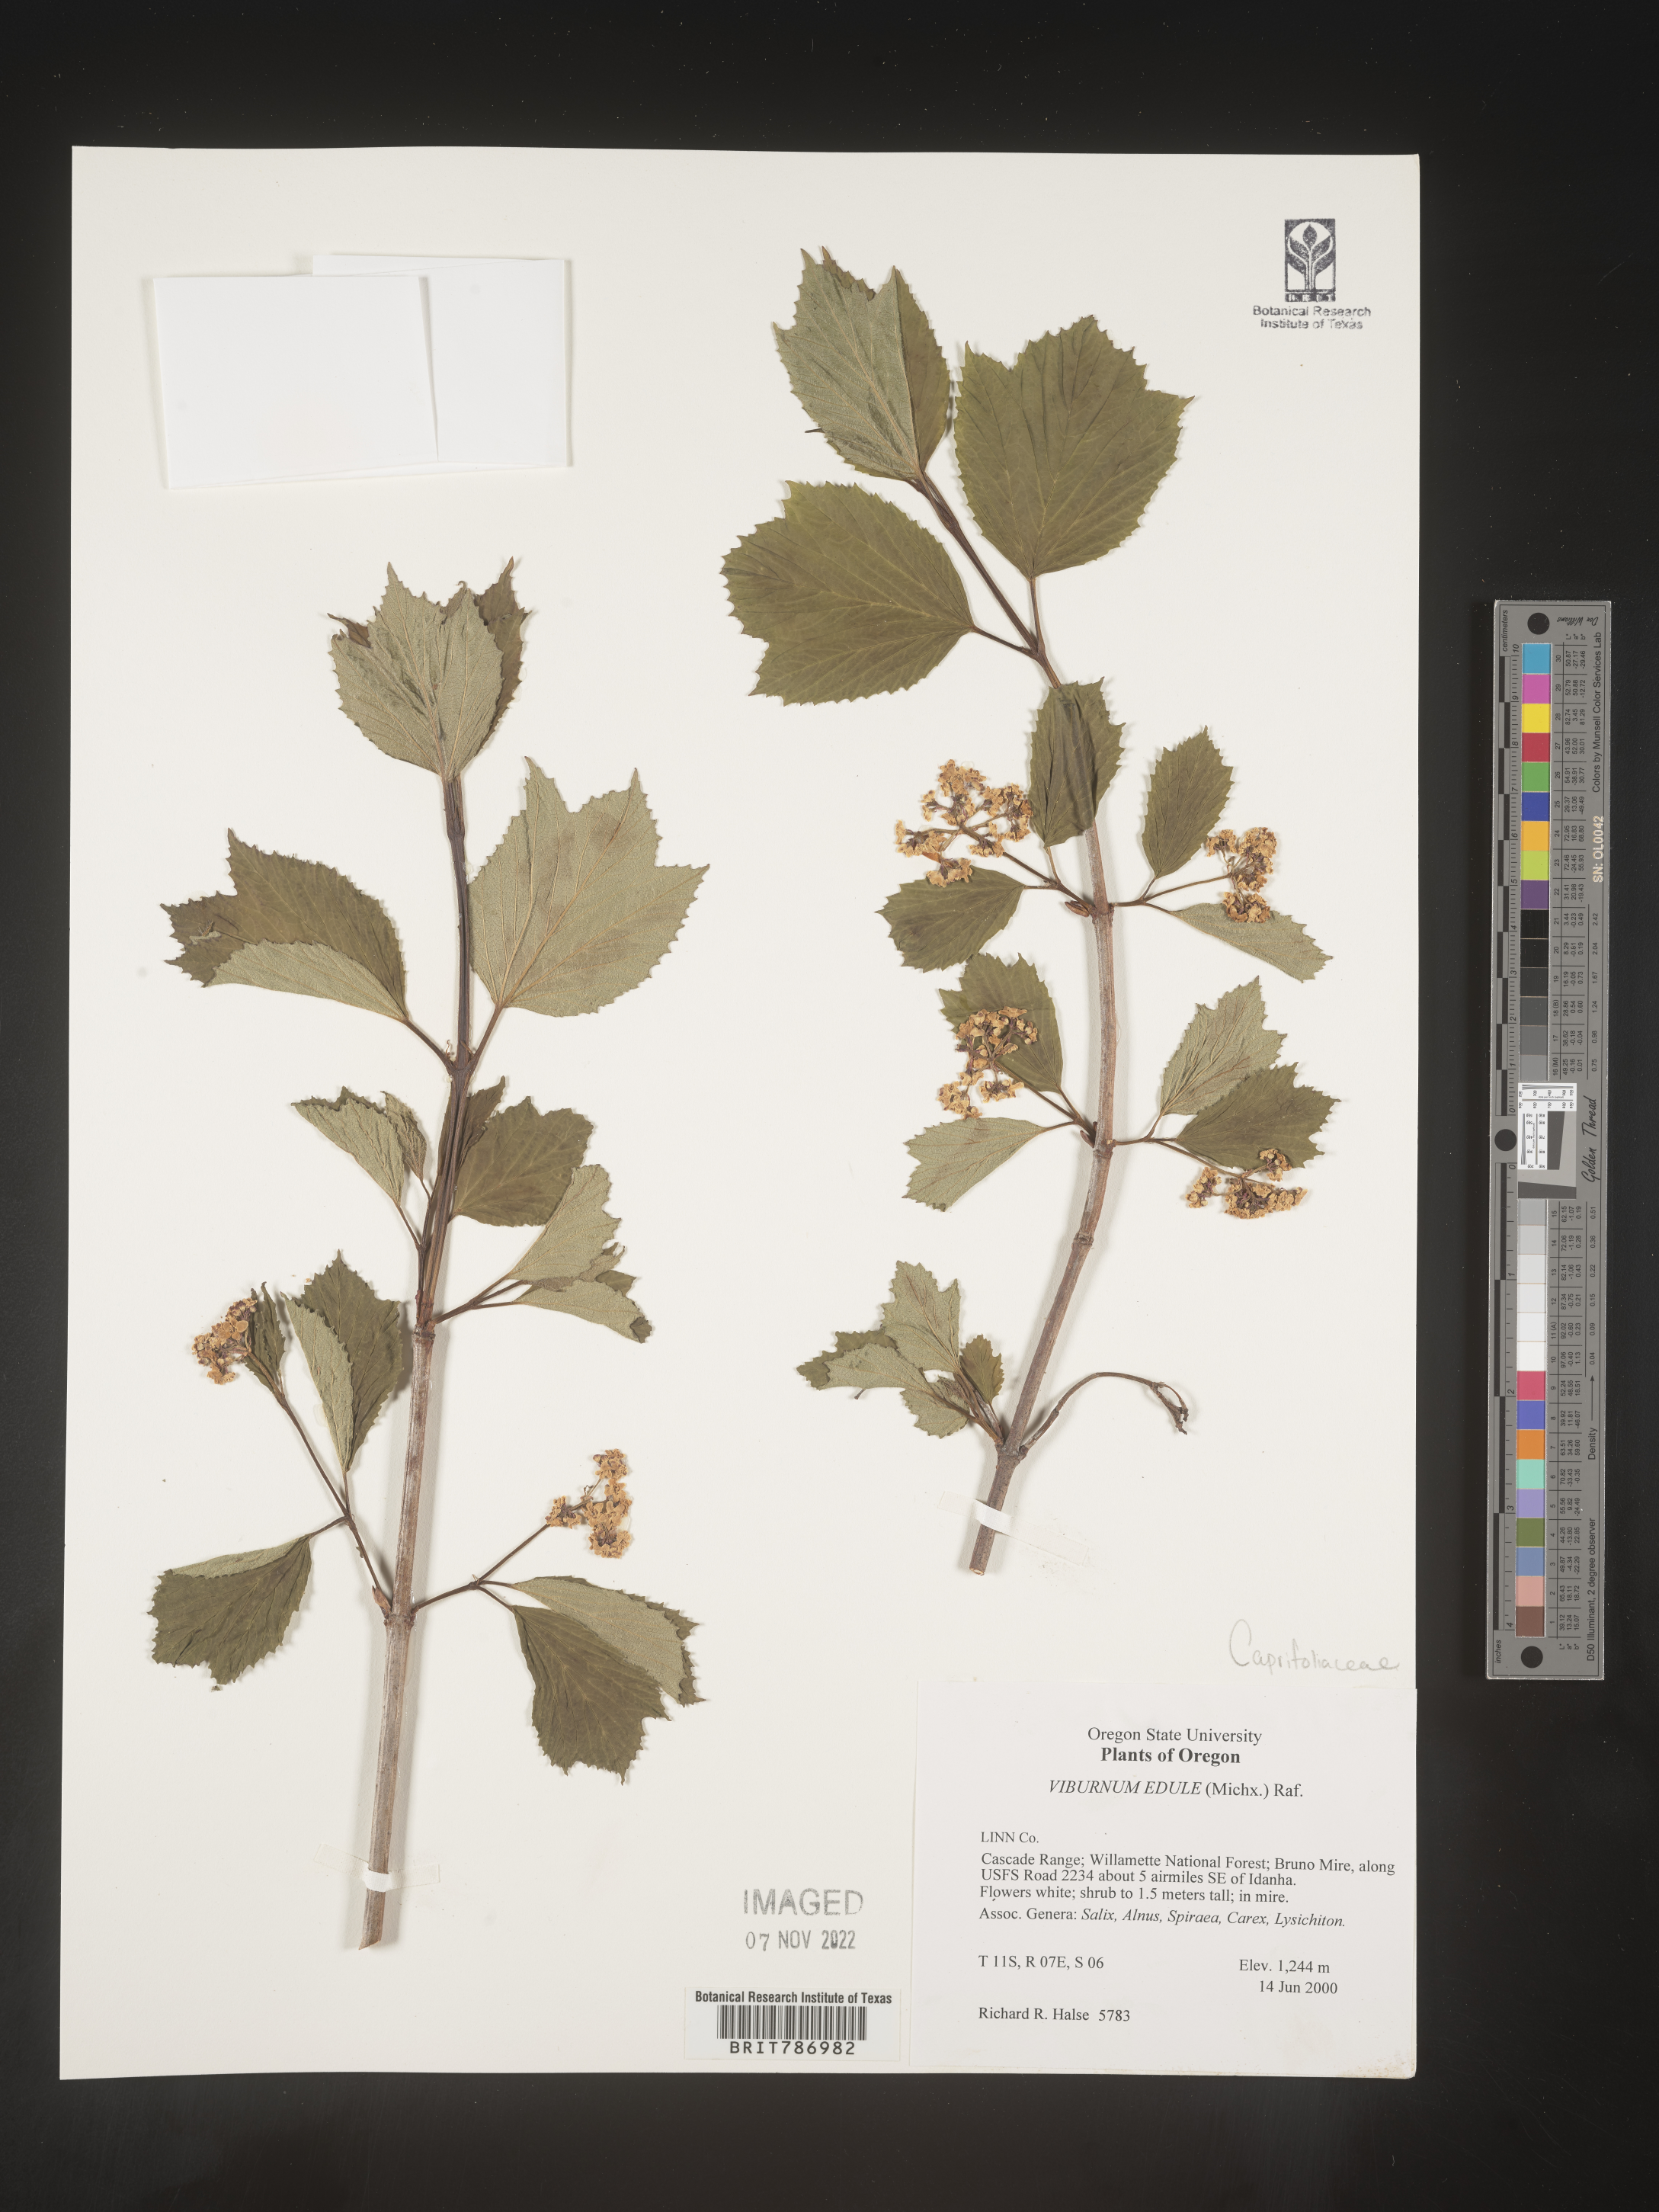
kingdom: Plantae
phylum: Tracheophyta
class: Magnoliopsida
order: Dipsacales
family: Viburnaceae
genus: Viburnum
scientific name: Viburnum edule
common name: Mooseberry
